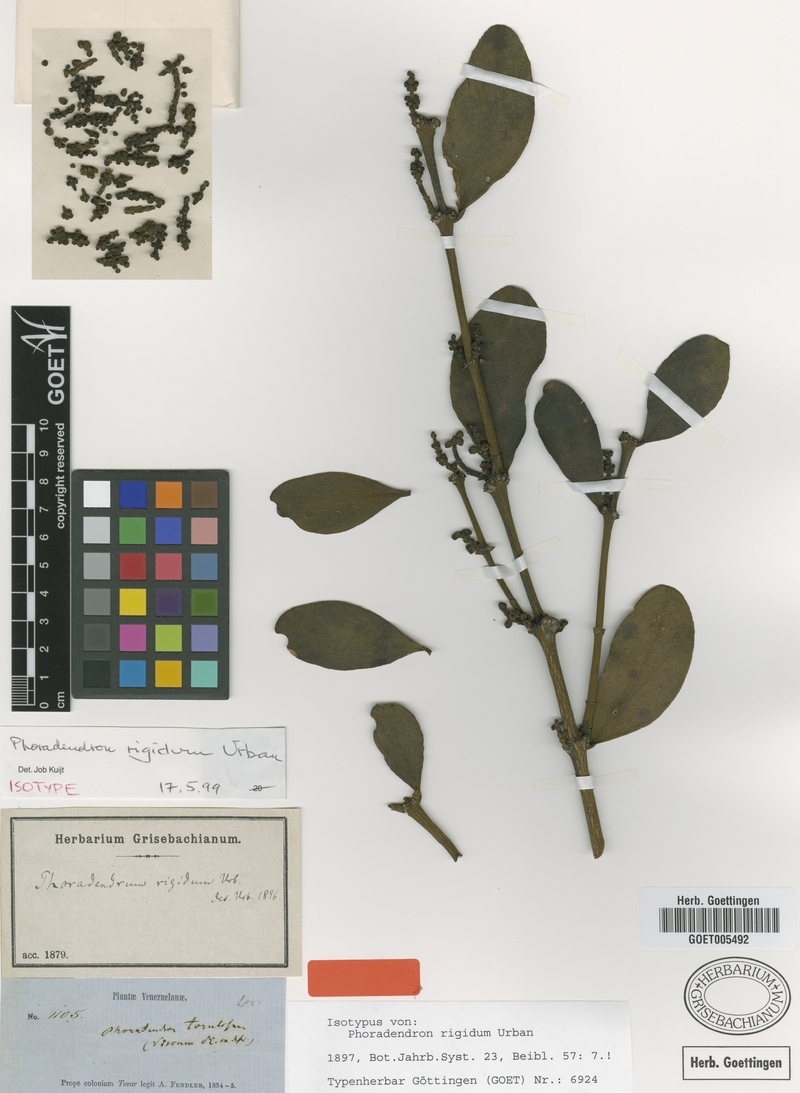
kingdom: Plantae
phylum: Tracheophyta
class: Magnoliopsida
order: Santalales
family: Viscaceae
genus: Phoradendron
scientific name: Phoradendron rigidum
